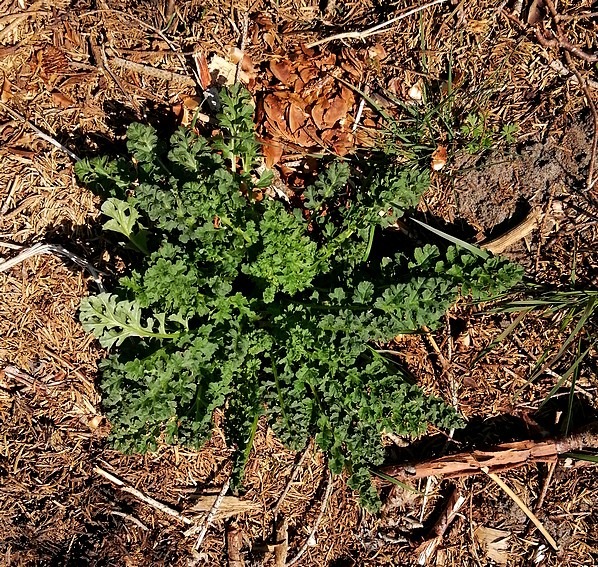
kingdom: Plantae
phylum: Tracheophyta
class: Magnoliopsida
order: Asterales
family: Asteraceae
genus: Jacobaea
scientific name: Jacobaea vulgaris
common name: Eng-brandbæger
